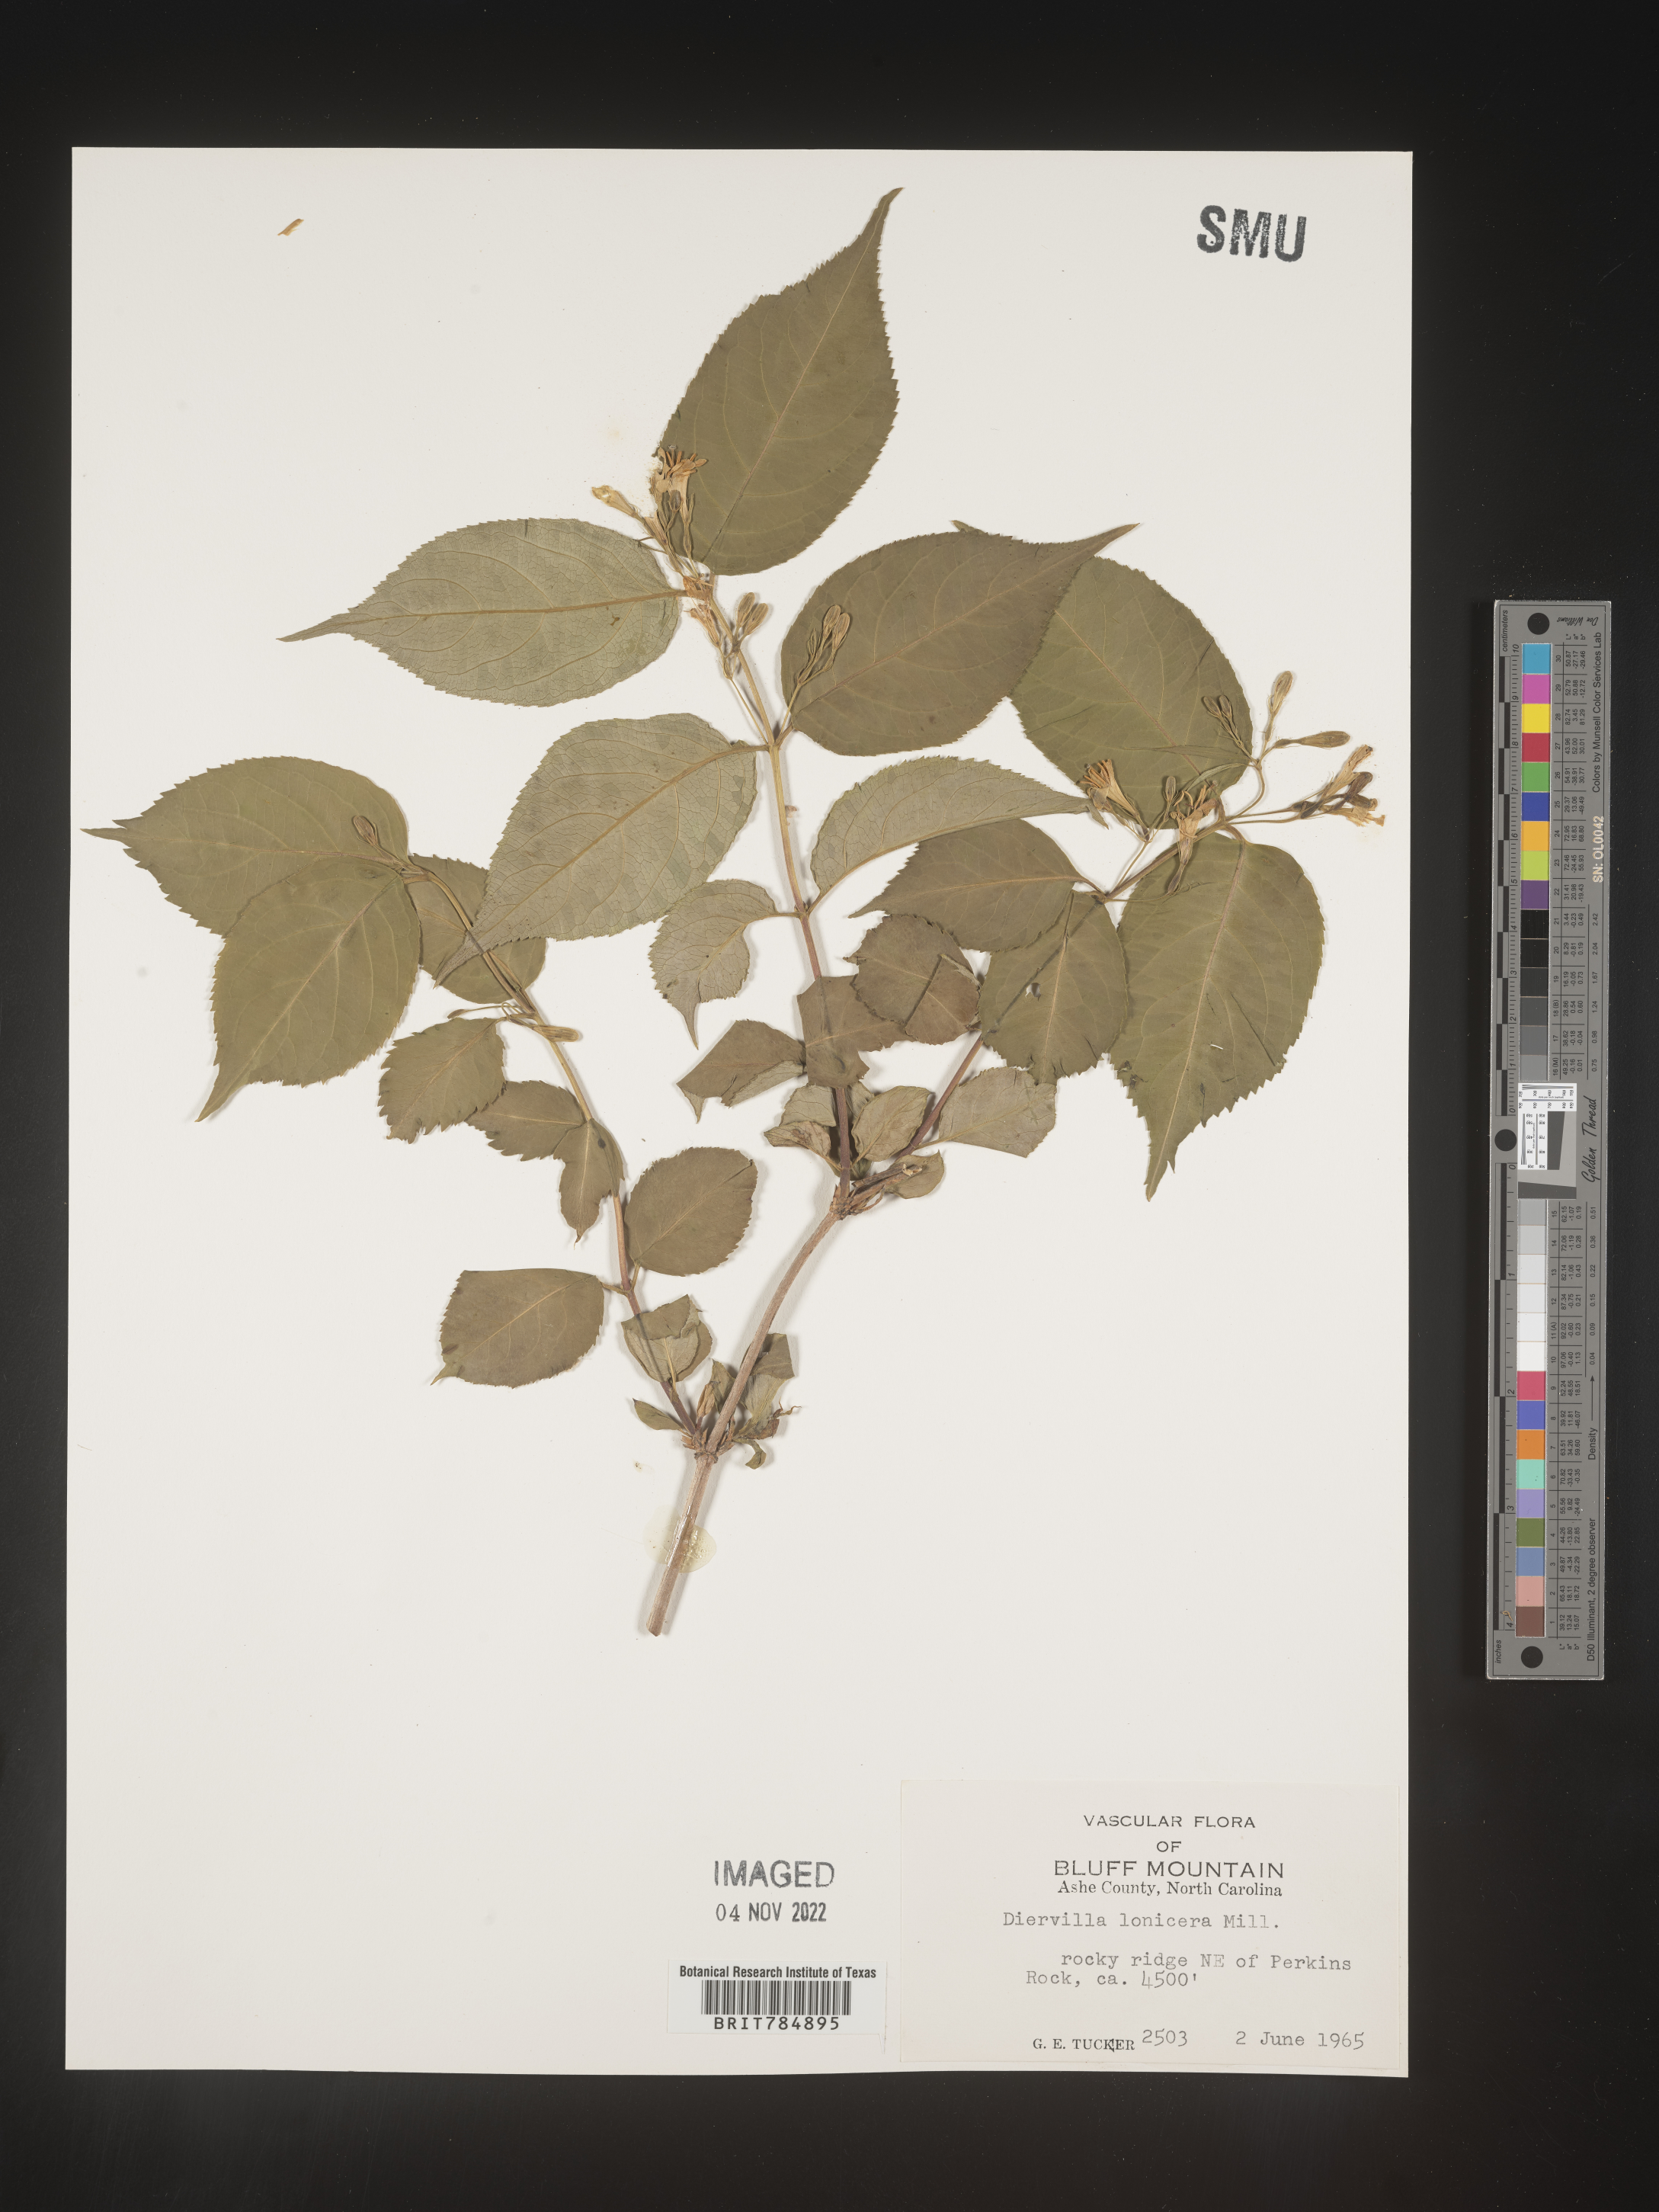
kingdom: Plantae
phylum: Tracheophyta
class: Magnoliopsida
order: Dipsacales
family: Caprifoliaceae
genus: Diervilla
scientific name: Diervilla lonicera
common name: Bush-honeysuckle
